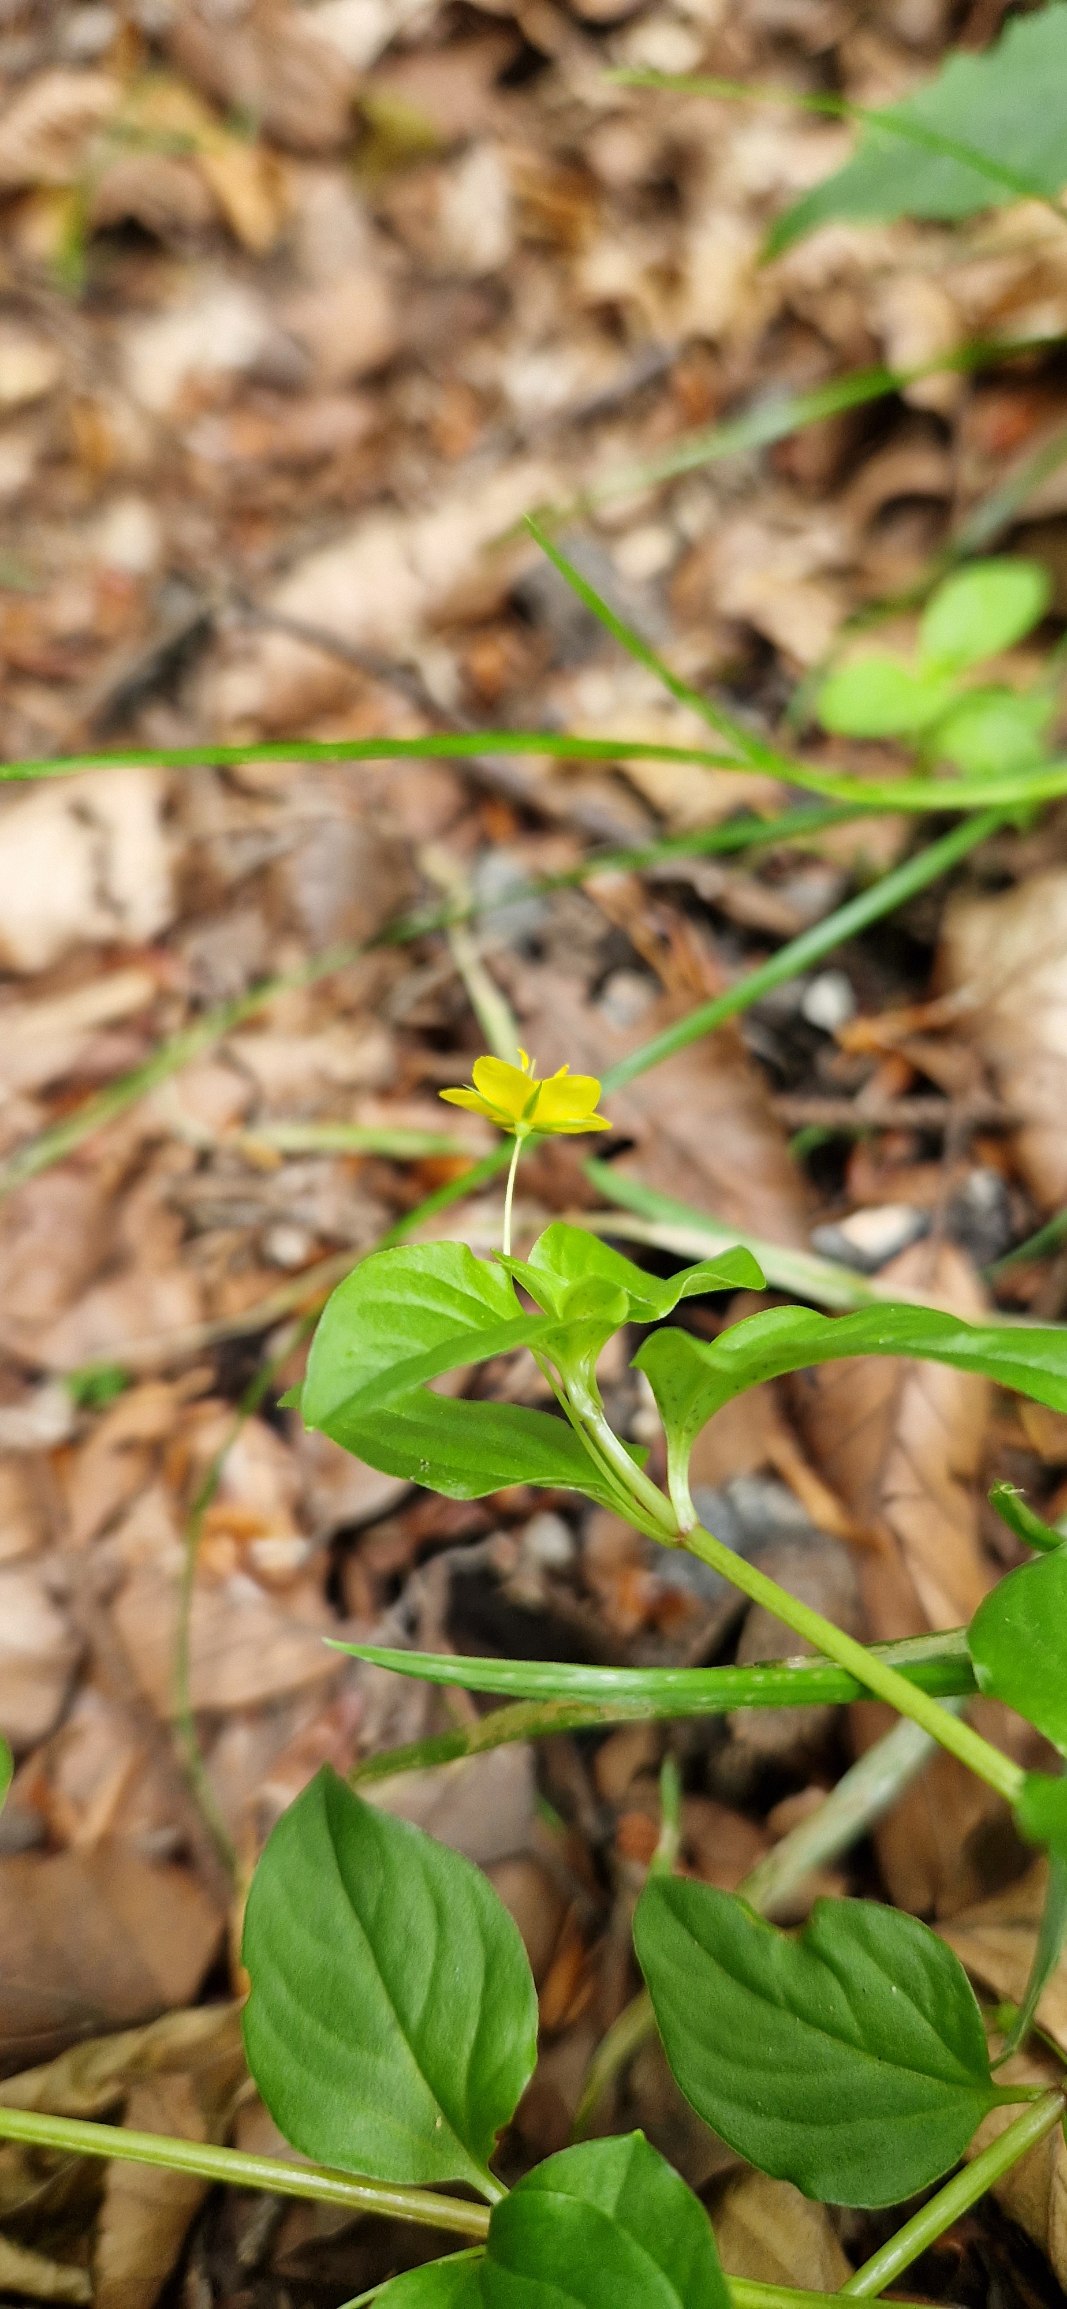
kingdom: Plantae
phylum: Tracheophyta
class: Magnoliopsida
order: Ericales
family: Primulaceae
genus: Lysimachia
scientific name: Lysimachia nemorum
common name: Lund-fredløs
